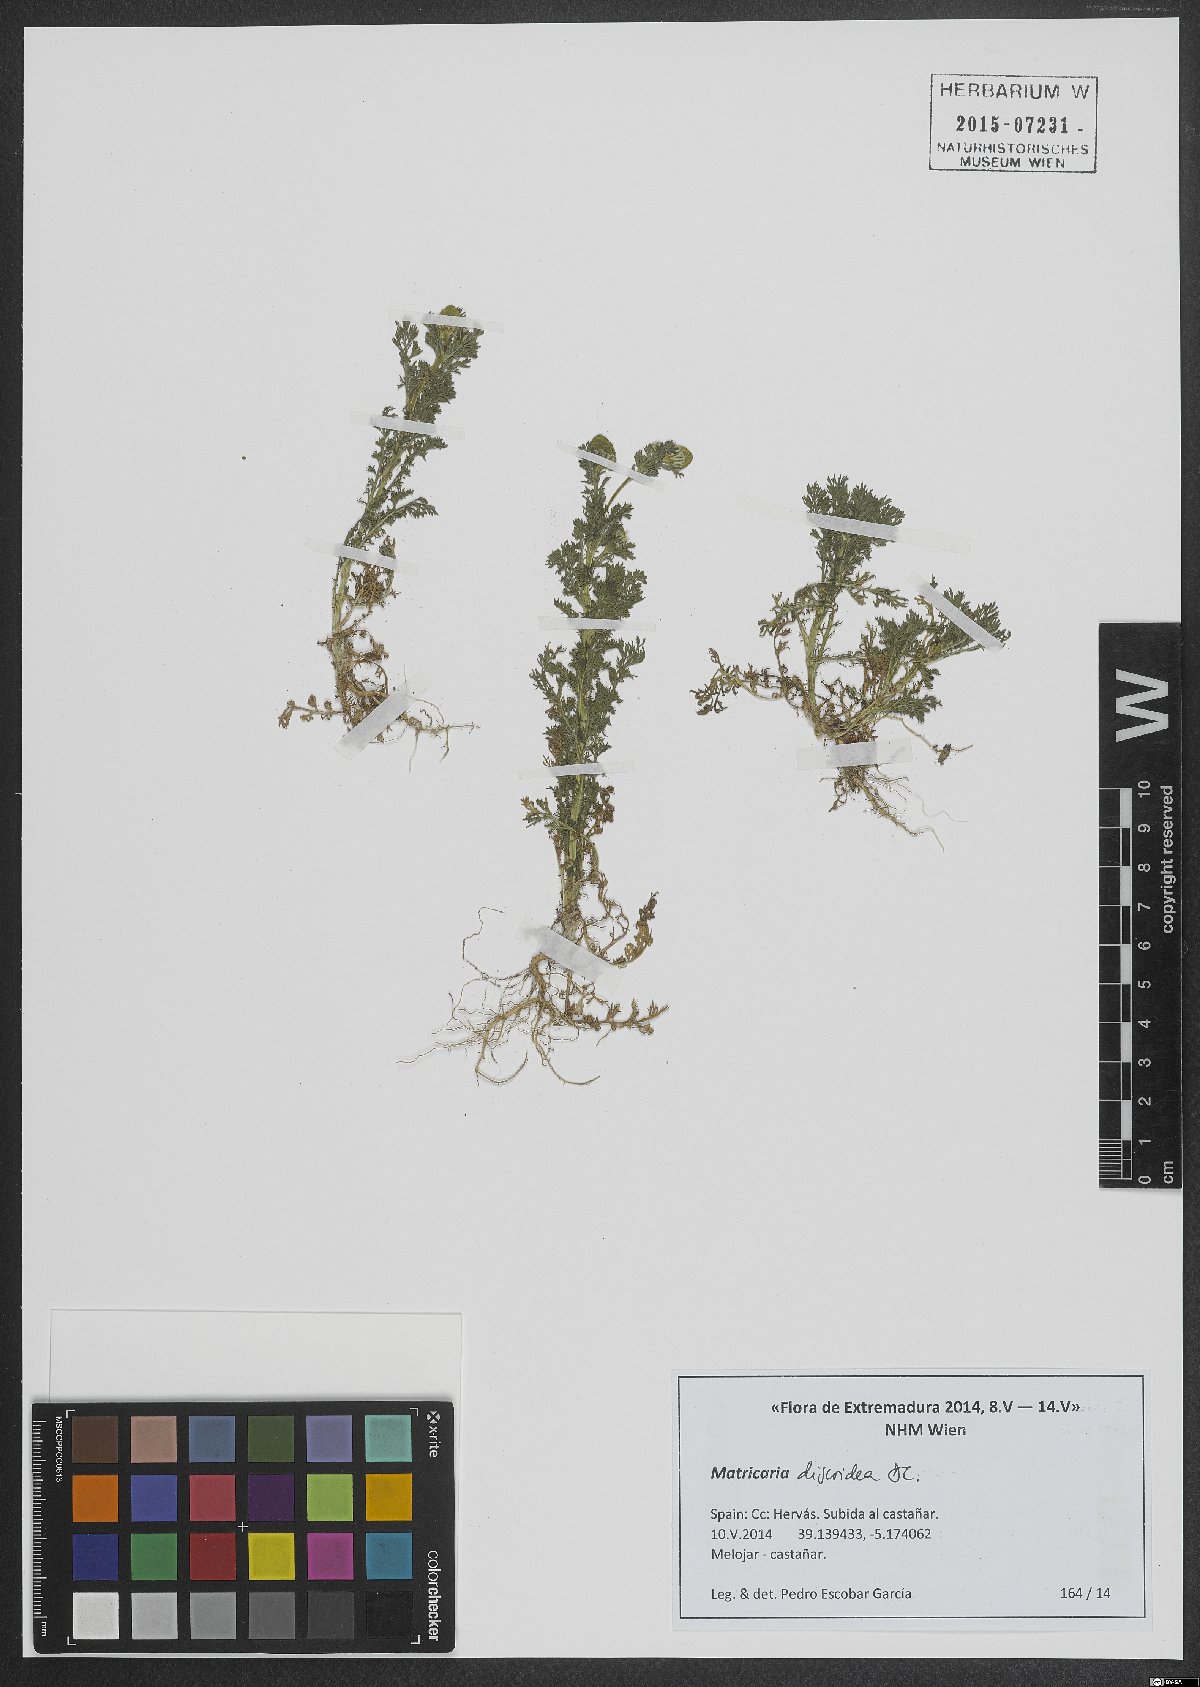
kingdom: Plantae
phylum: Tracheophyta
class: Magnoliopsida
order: Asterales
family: Asteraceae
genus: Matricaria
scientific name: Matricaria discoidea
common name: Disc mayweed
